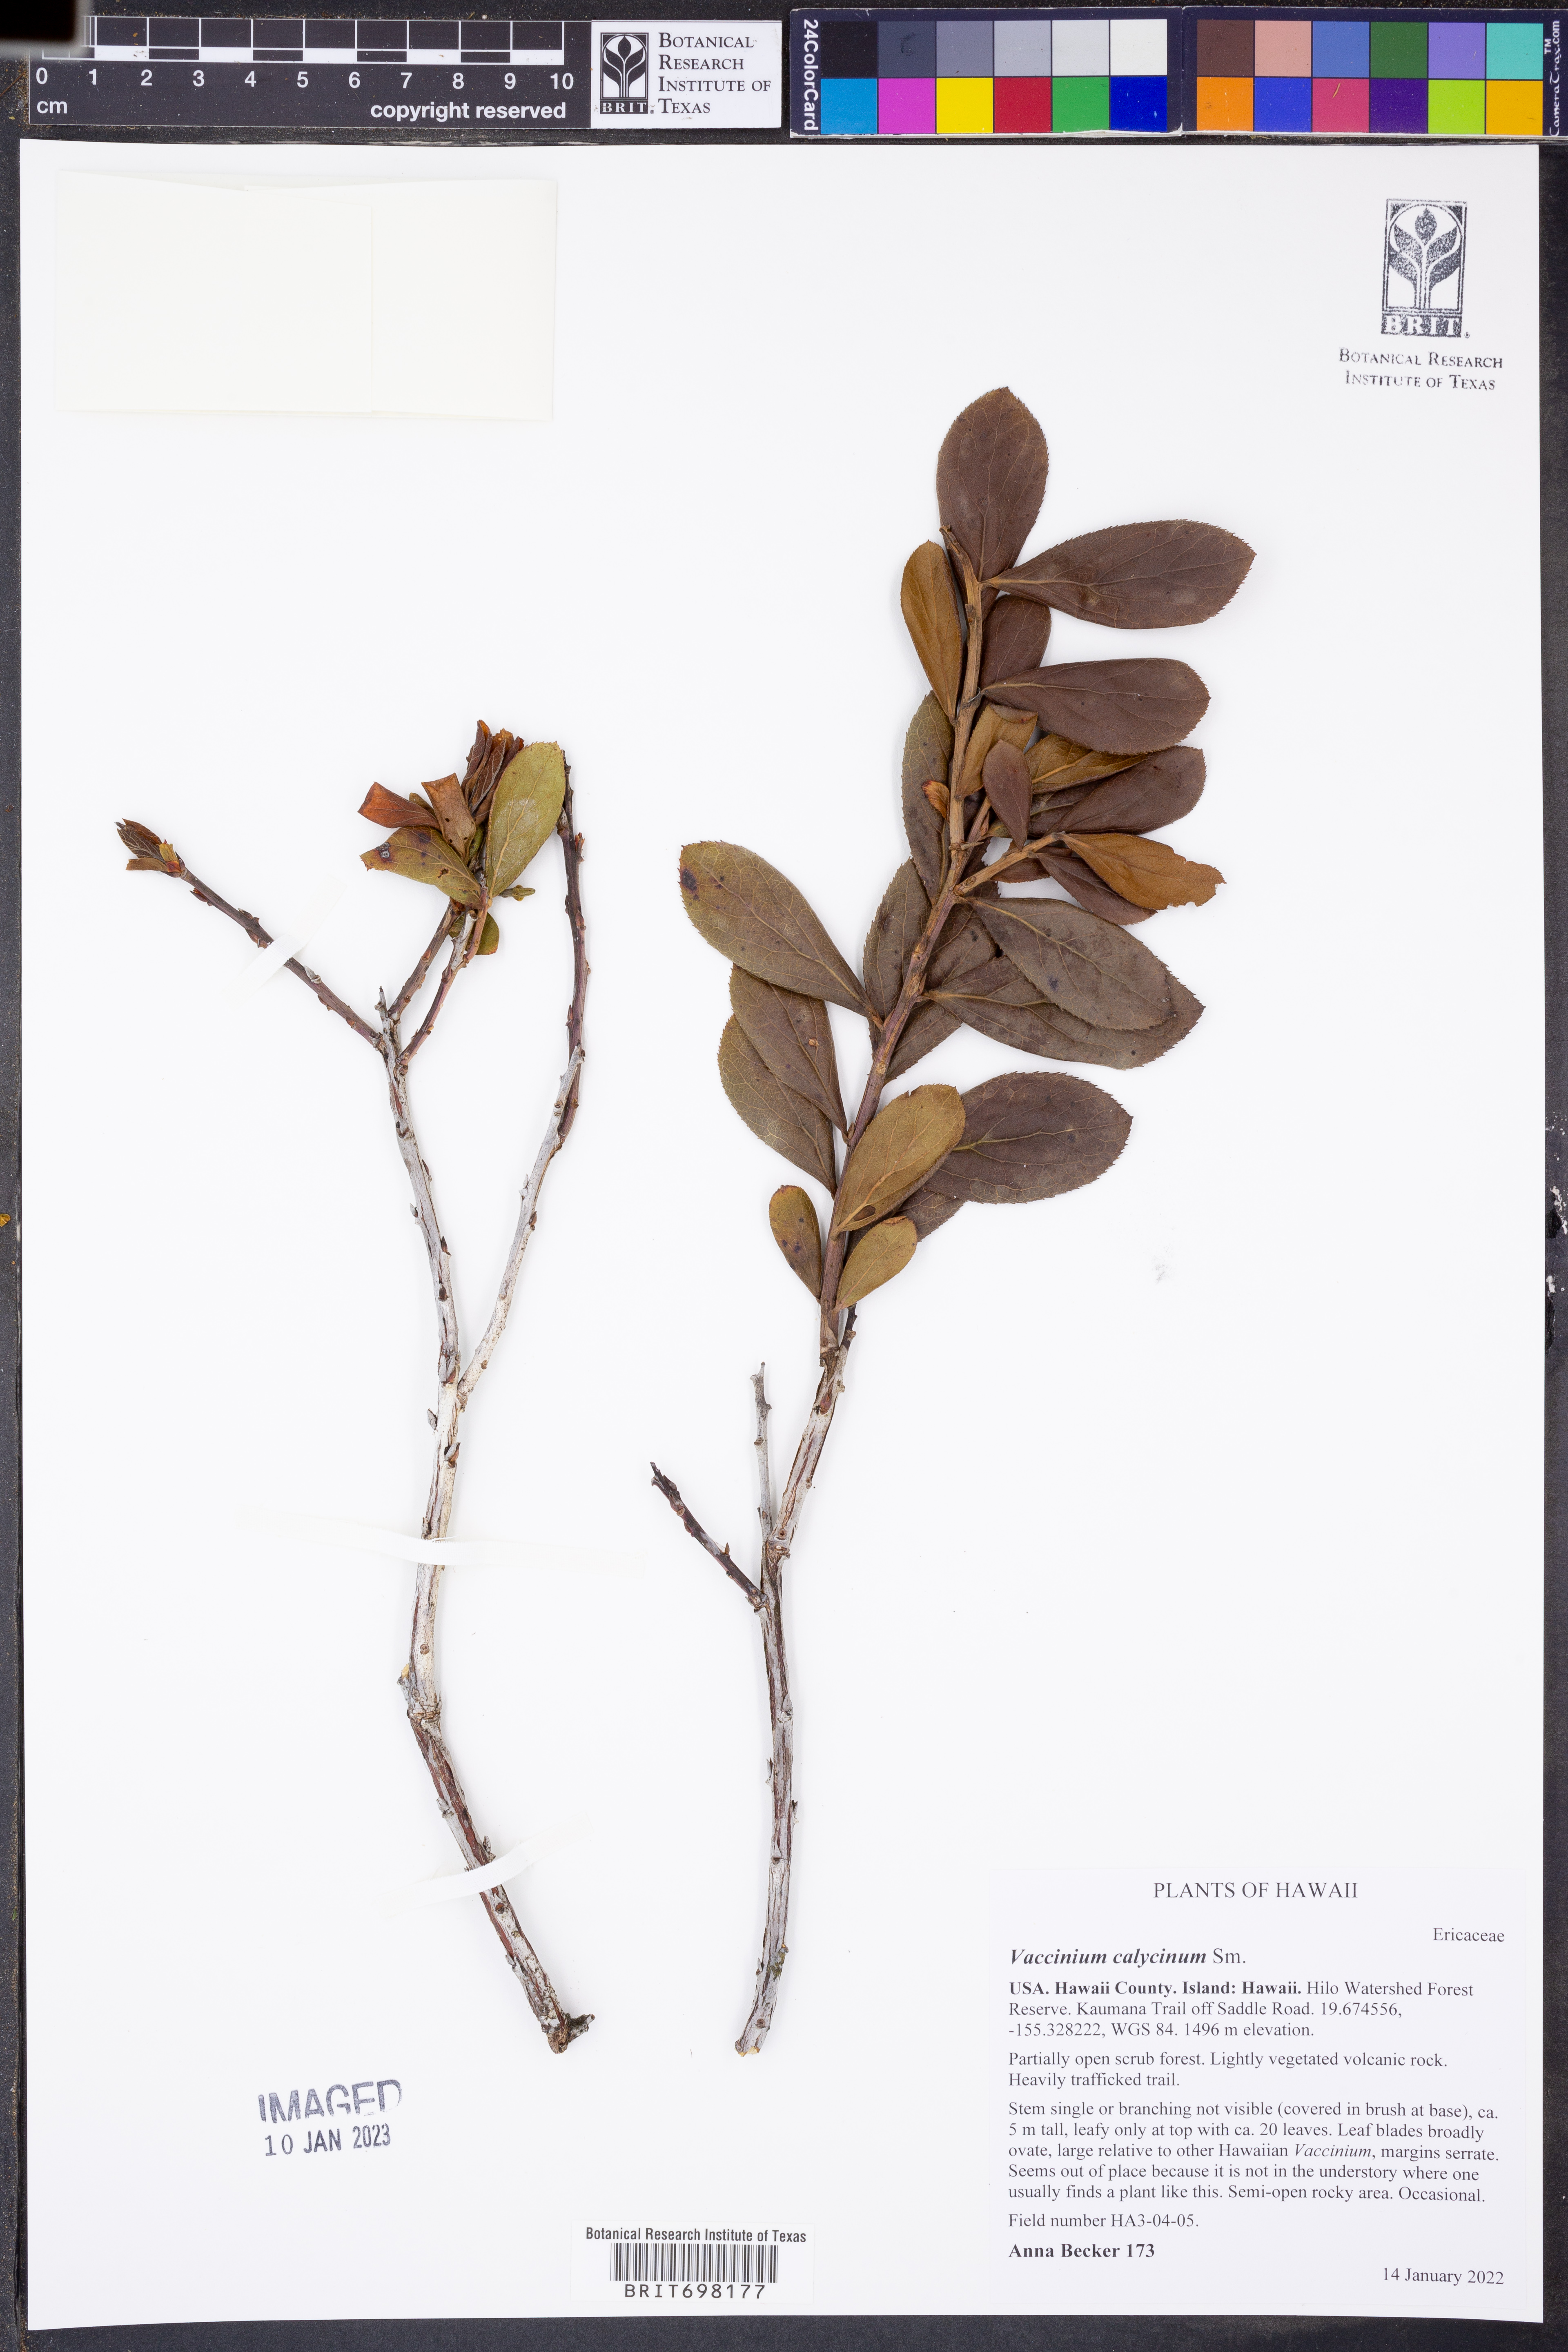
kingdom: Plantae
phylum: Tracheophyta
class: Magnoliopsida
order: Ericales
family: Ericaceae
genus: Vaccinium
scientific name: Vaccinium calycinum
